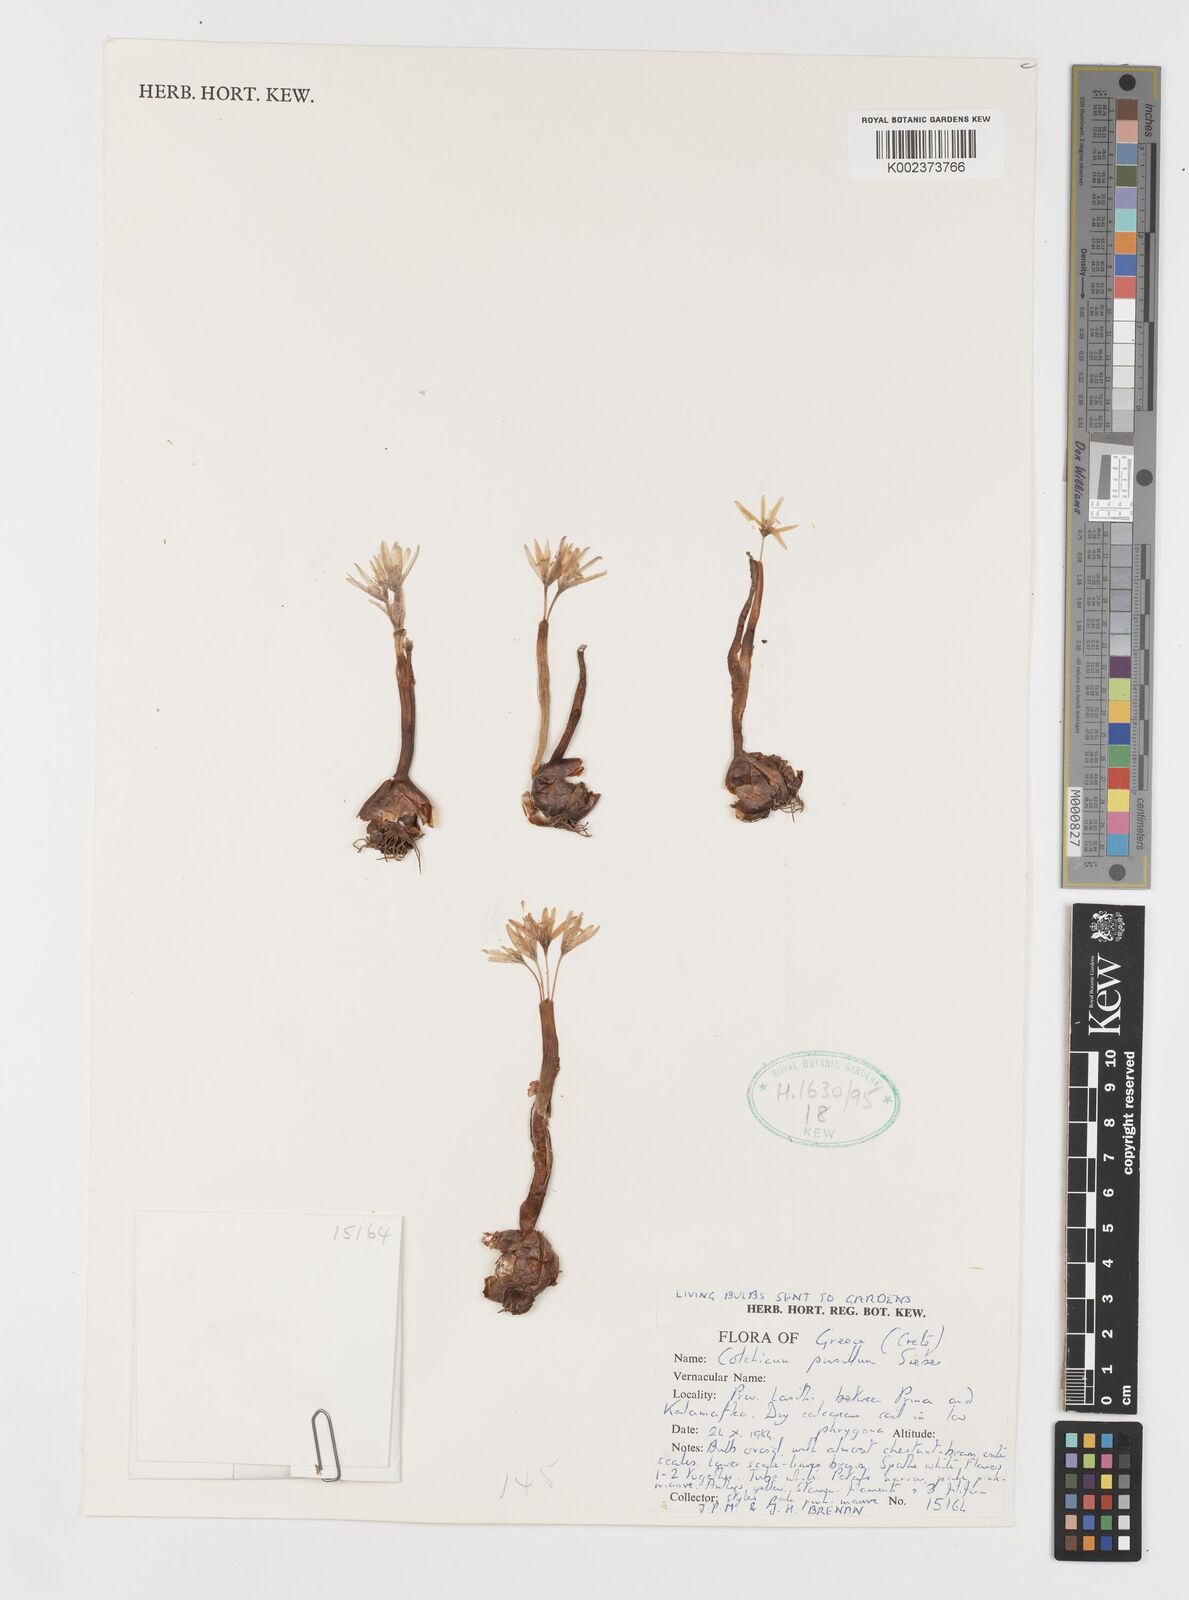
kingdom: Plantae
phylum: Tracheophyta
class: Liliopsida
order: Liliales
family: Colchicaceae
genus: Colchicum
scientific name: Colchicum pusillum
